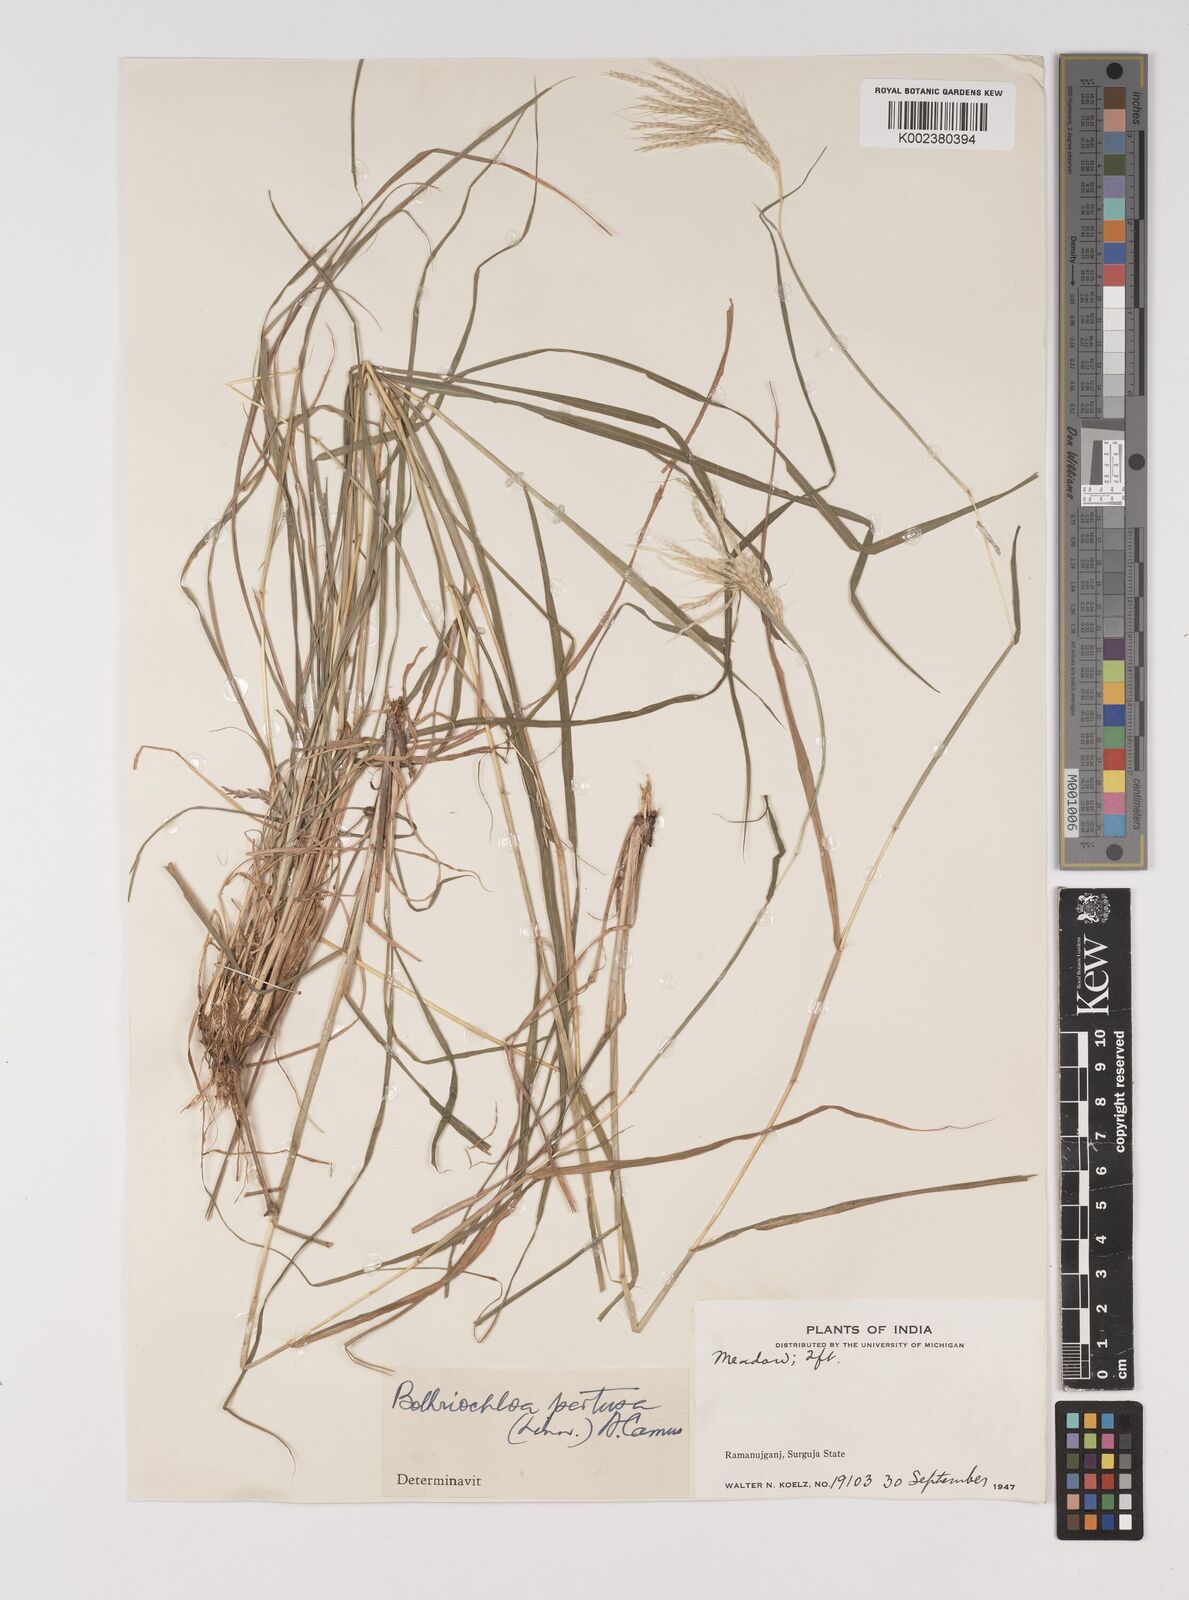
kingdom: Plantae
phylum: Tracheophyta
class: Liliopsida
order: Poales
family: Poaceae
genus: Bothriochloa
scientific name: Bothriochloa pertusa
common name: Pitted beardgrass
